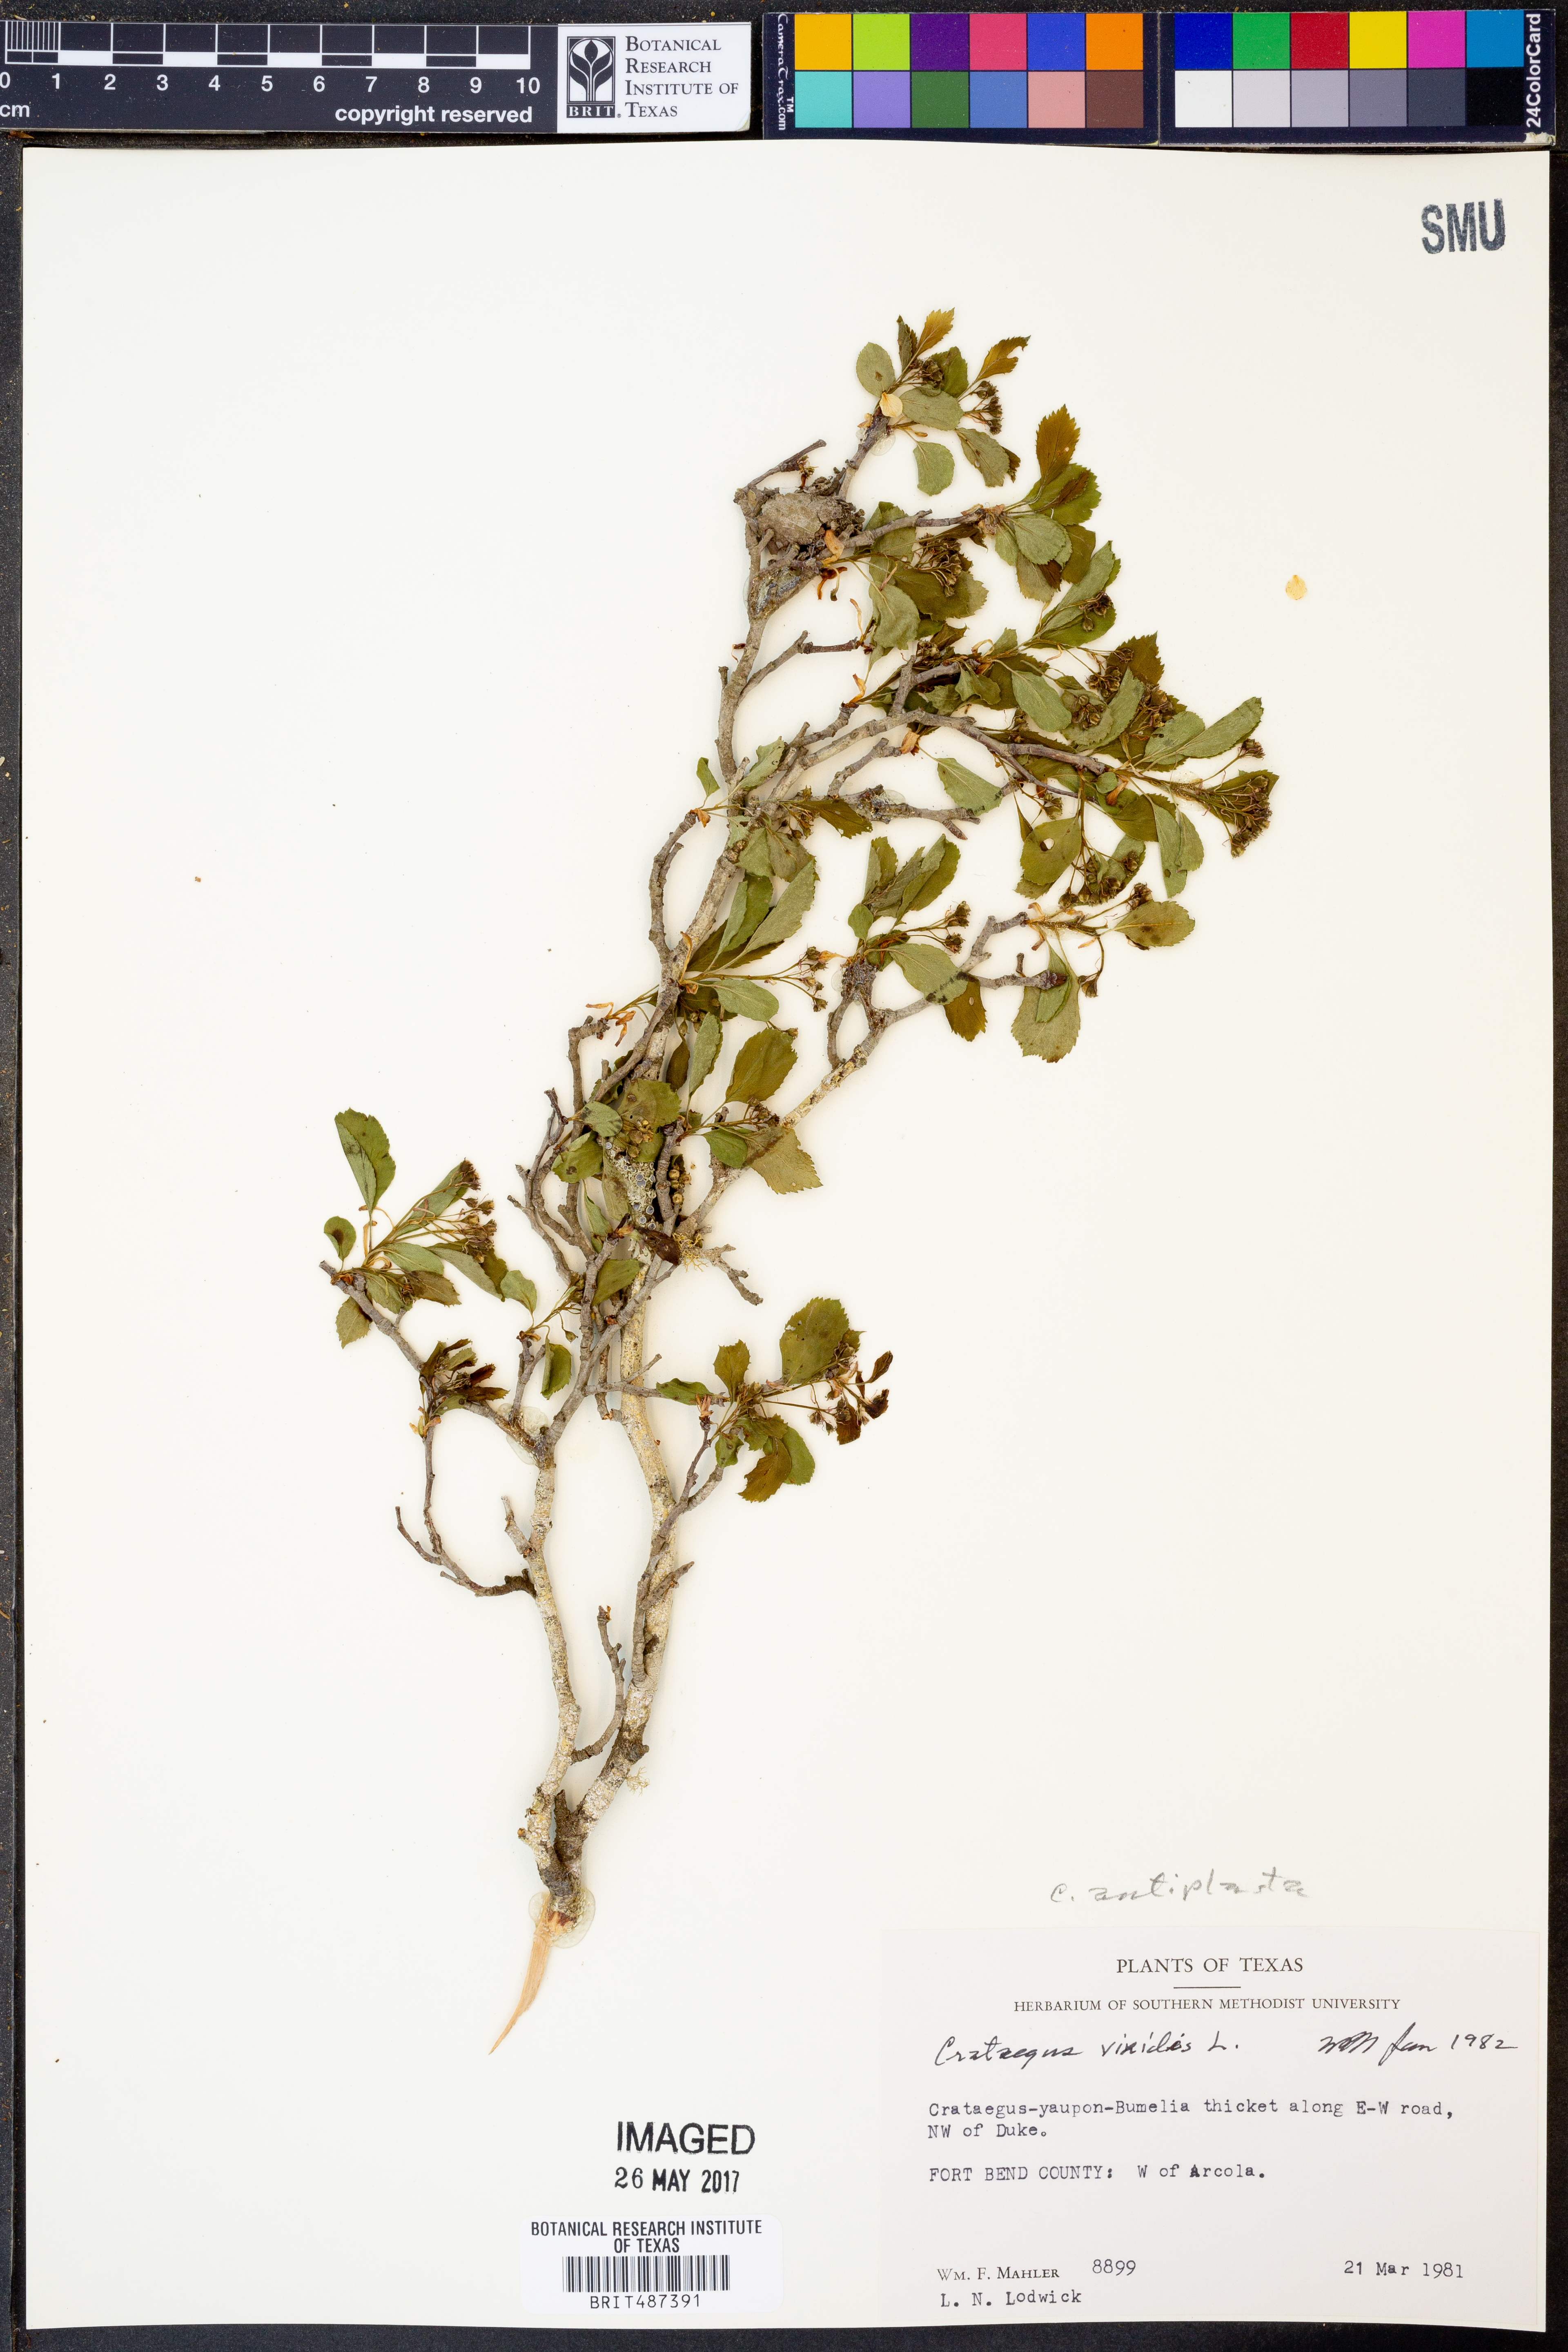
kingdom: Plantae
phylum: Tracheophyta
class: Magnoliopsida
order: Rosales
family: Rosaceae
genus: Crataegus
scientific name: Crataegus viridis
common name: Southernthorn
